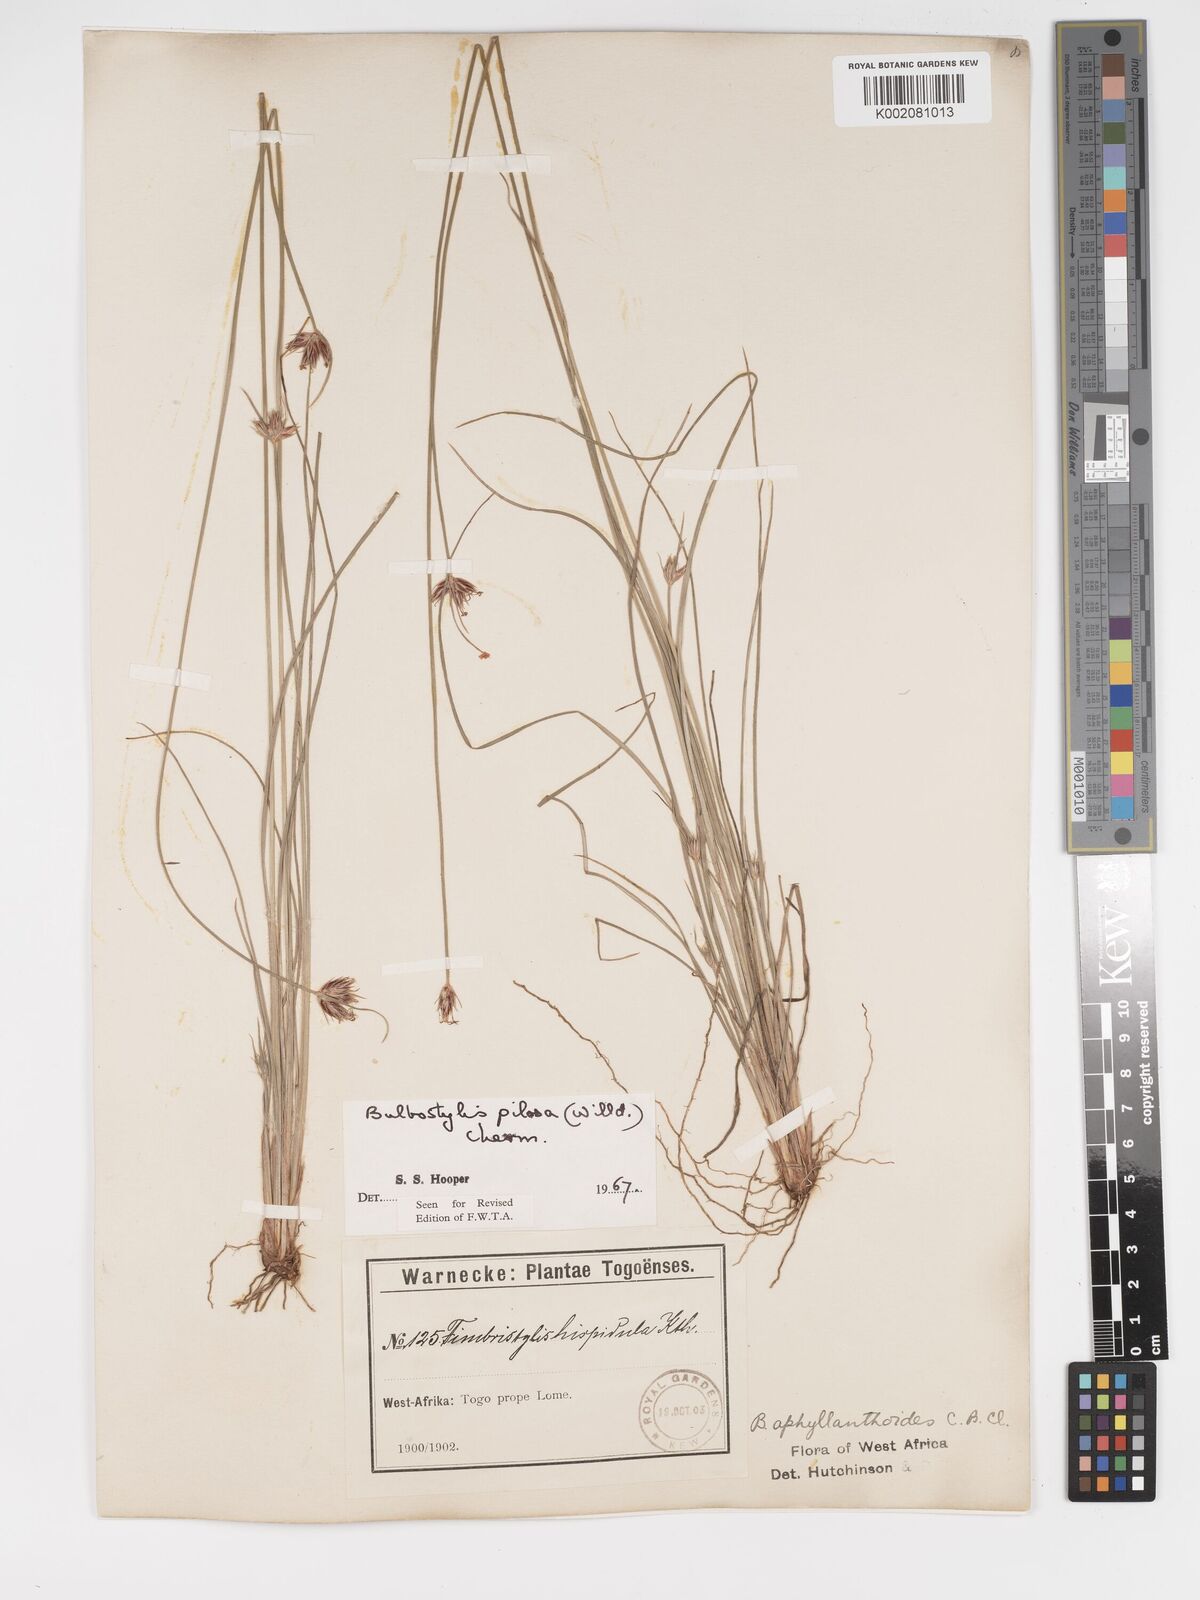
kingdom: Plantae
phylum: Tracheophyta
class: Liliopsida
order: Poales
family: Cyperaceae
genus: Bulbostylis
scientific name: Bulbostylis pilosa
